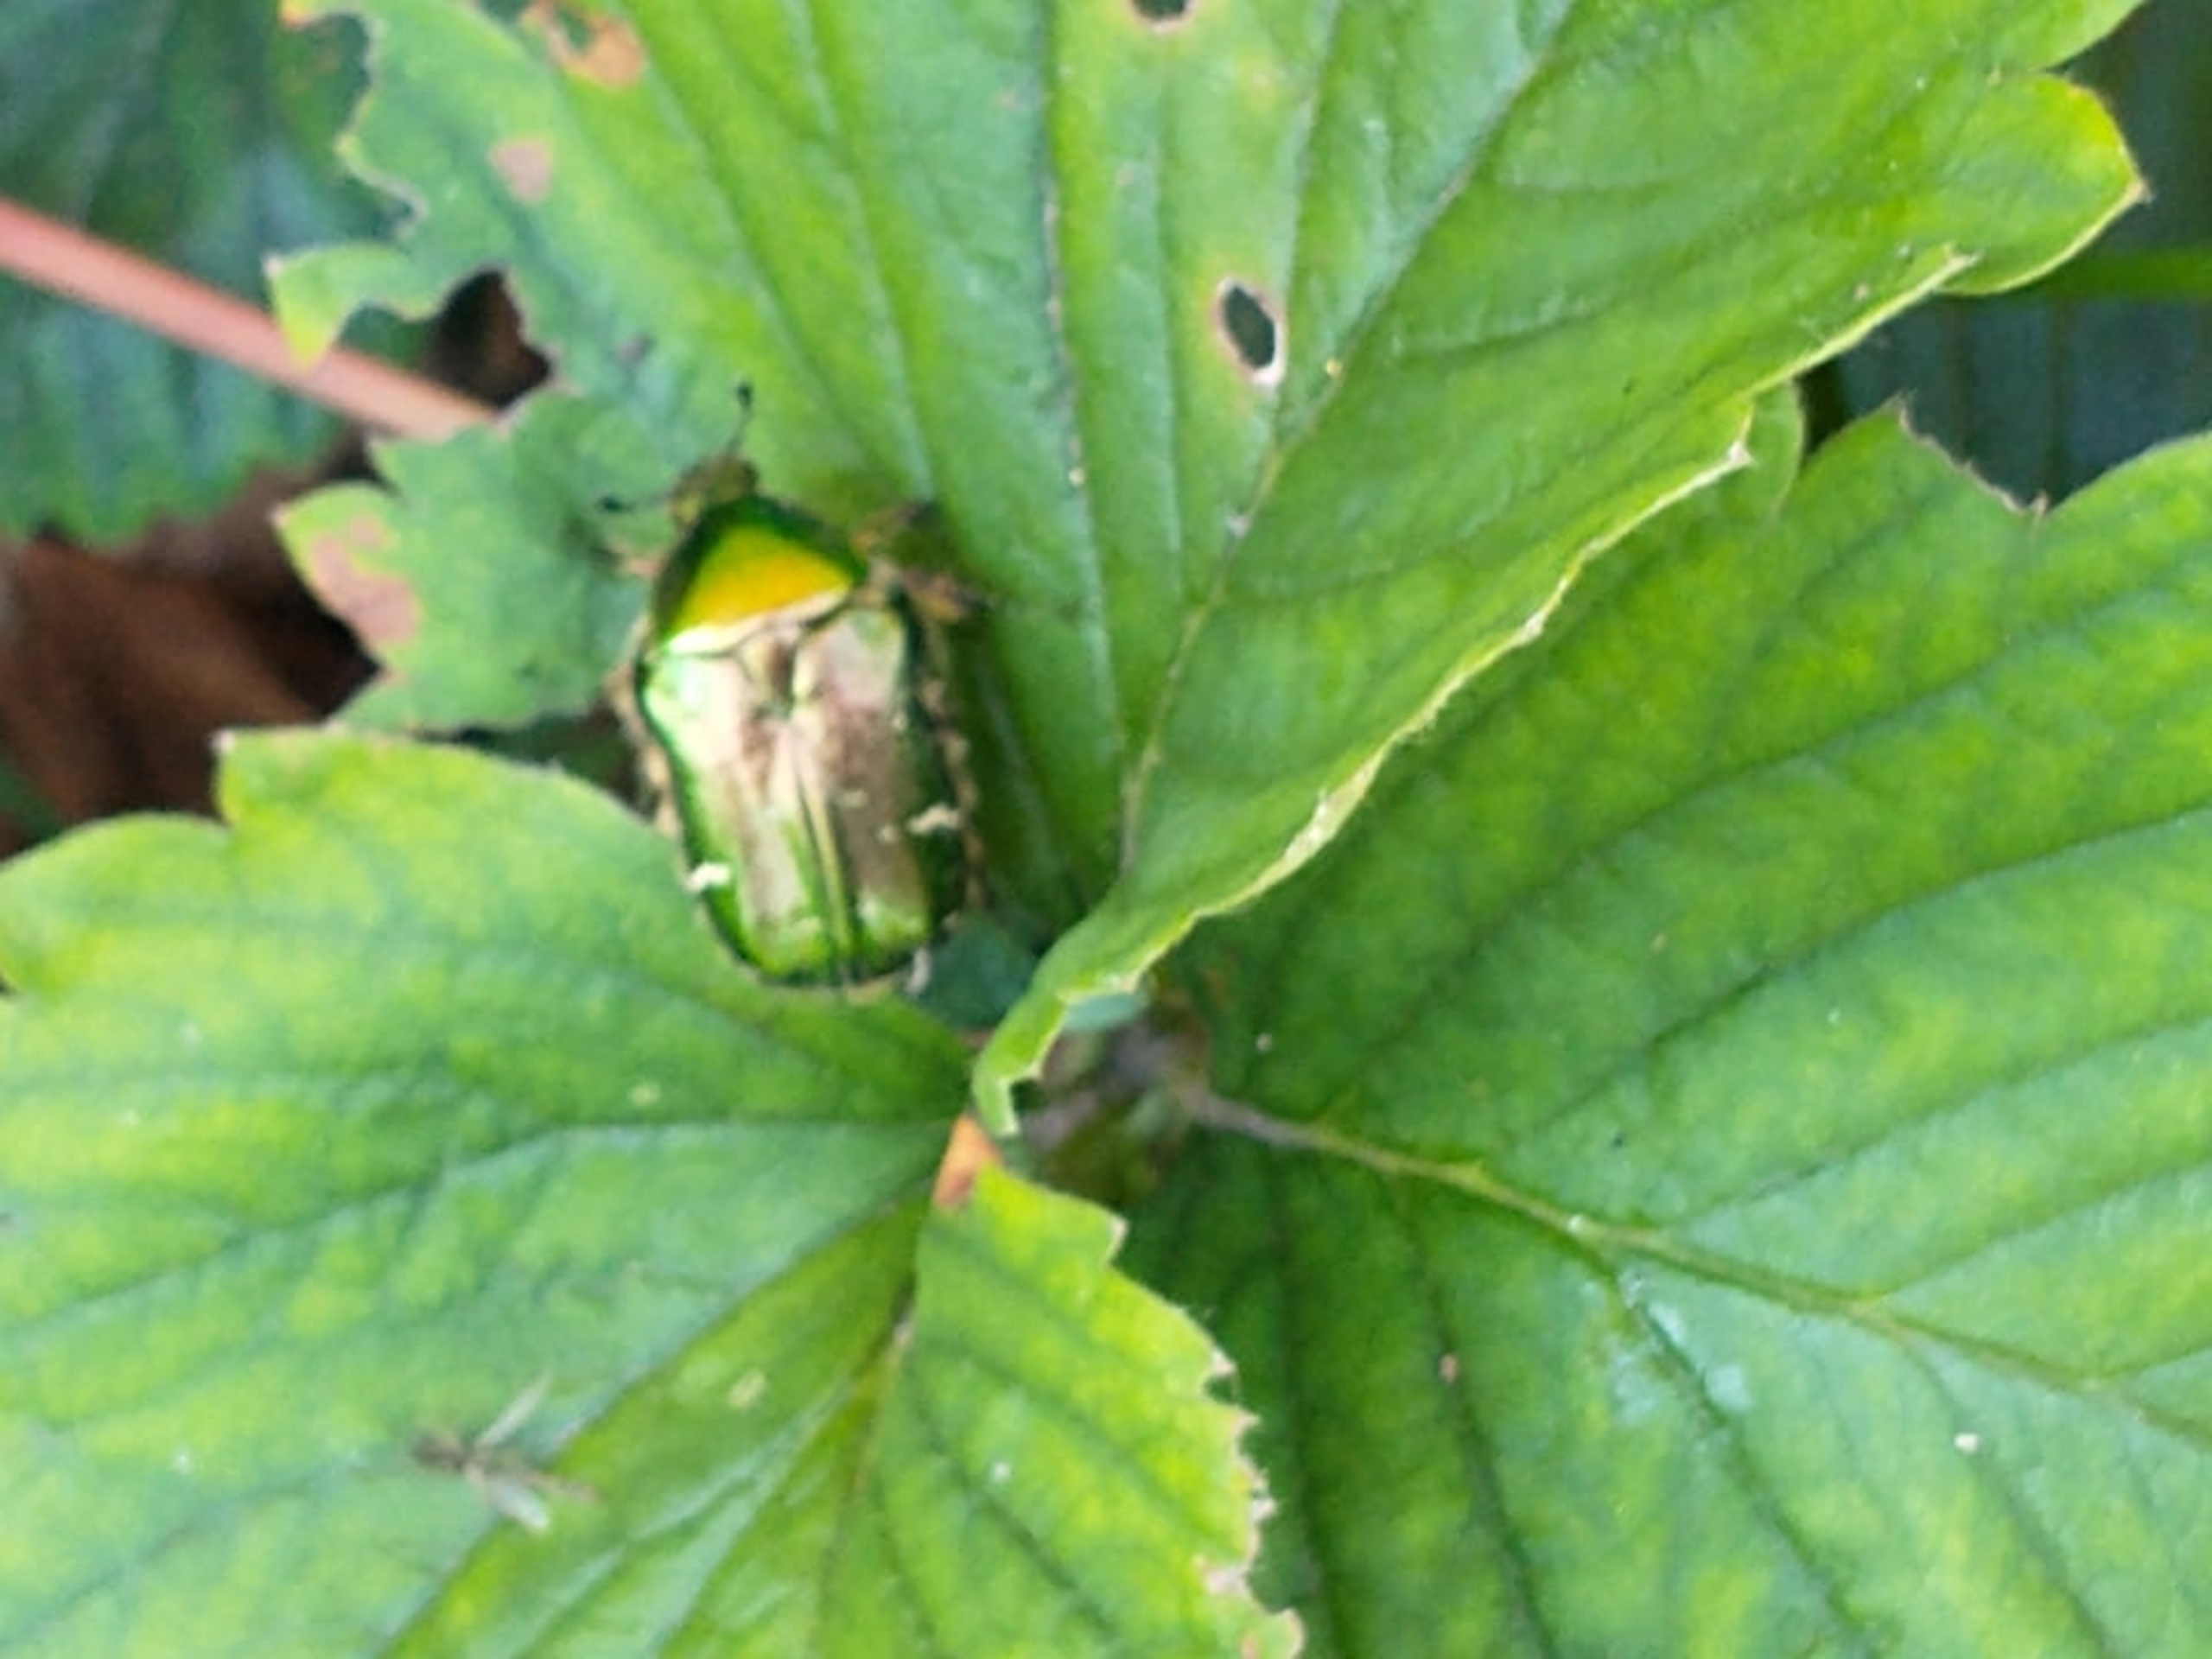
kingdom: Animalia
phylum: Arthropoda
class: Insecta
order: Coleoptera
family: Scarabaeidae
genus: Cetonia
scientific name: Cetonia aurata
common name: Grøn guldbasse
